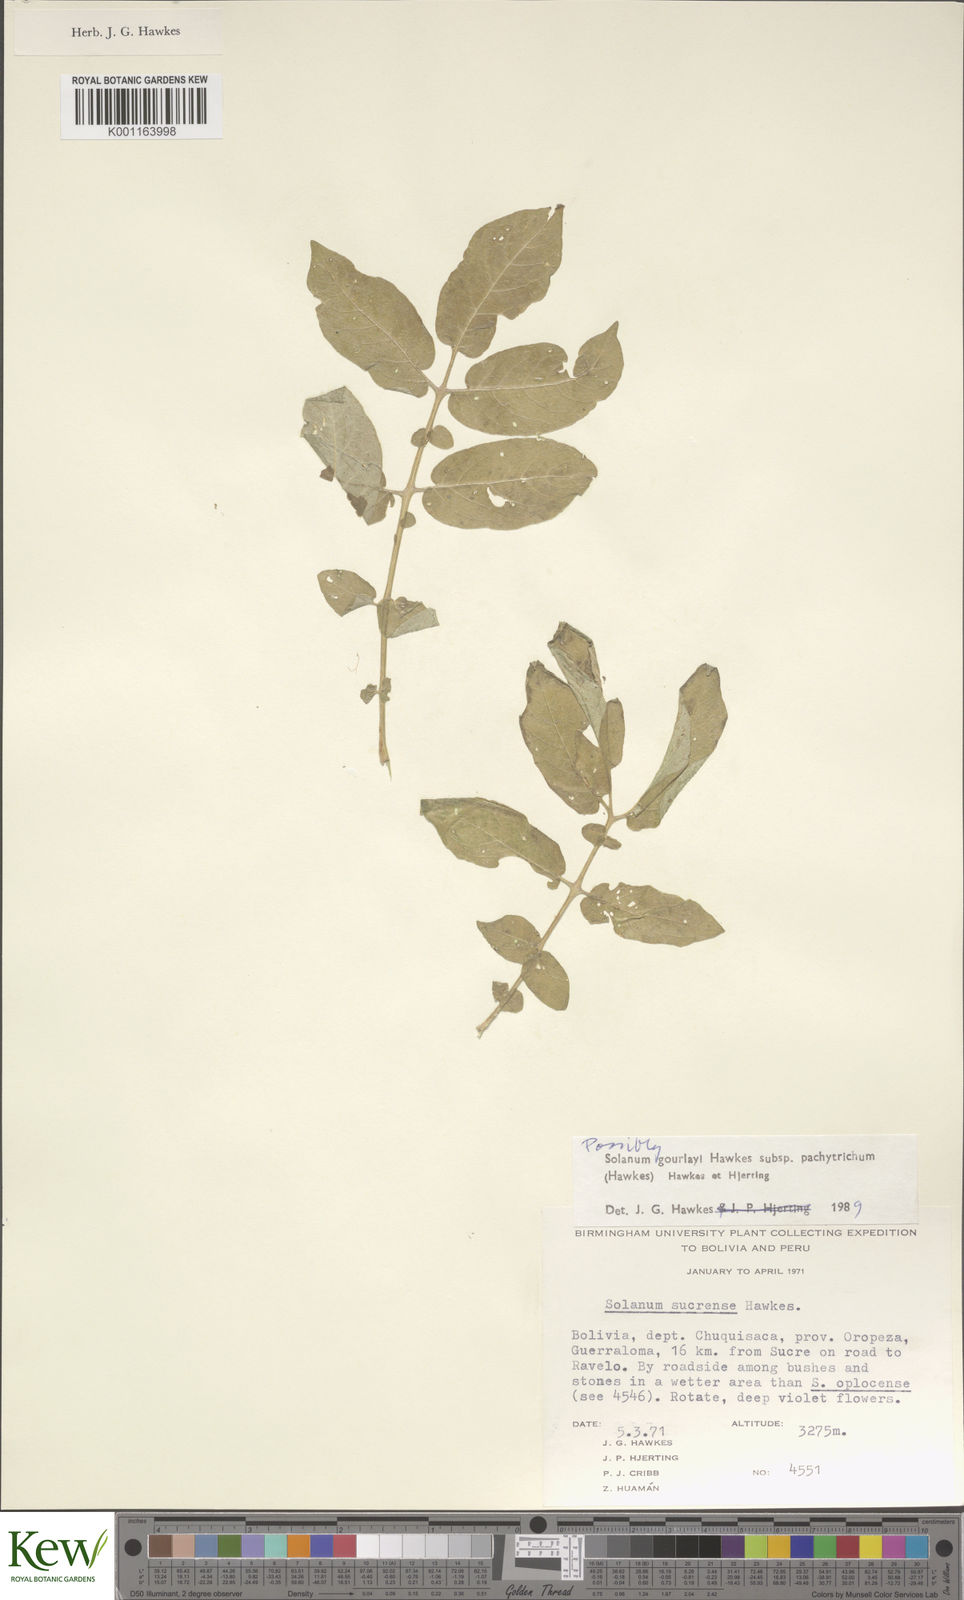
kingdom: Plantae
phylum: Tracheophyta
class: Magnoliopsida
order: Solanales
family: Solanaceae
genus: Solanum
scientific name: Solanum brevicaule
